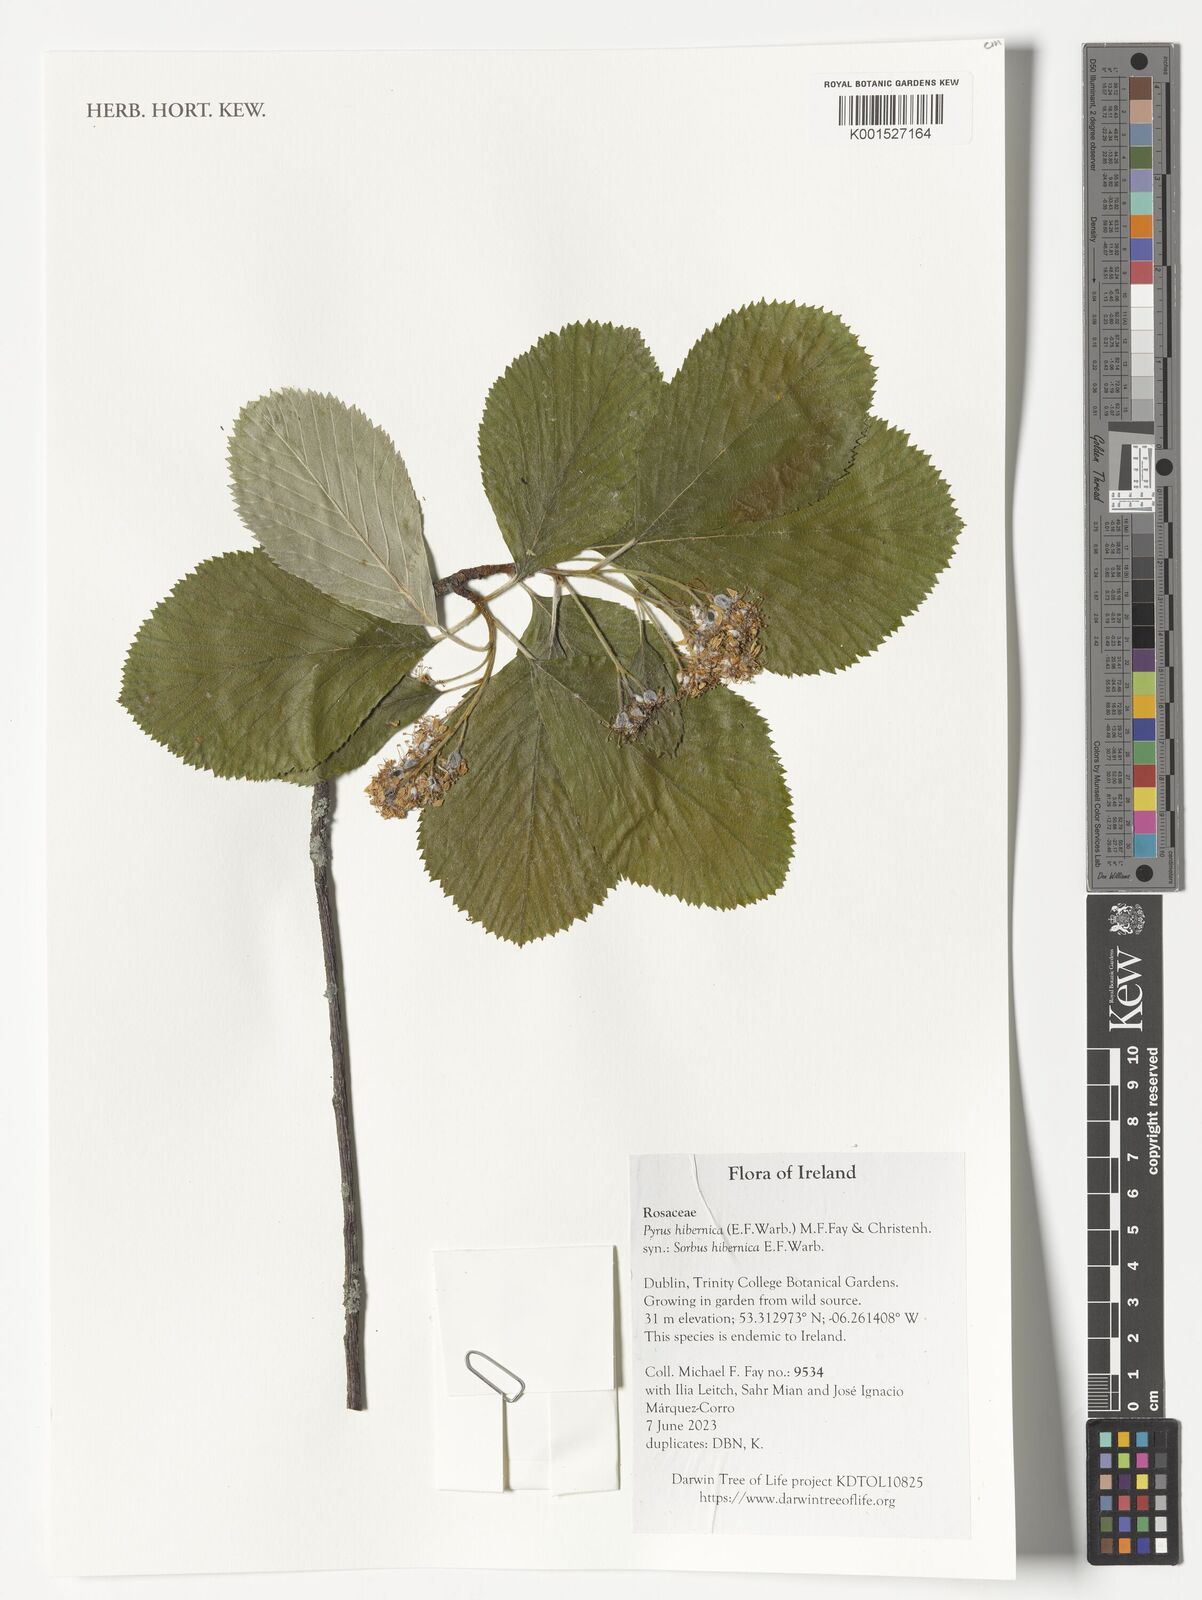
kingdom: Plantae
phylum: Tracheophyta
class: Magnoliopsida
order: Rosales
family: Rosaceae
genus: Aria
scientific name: Aria hibernica
